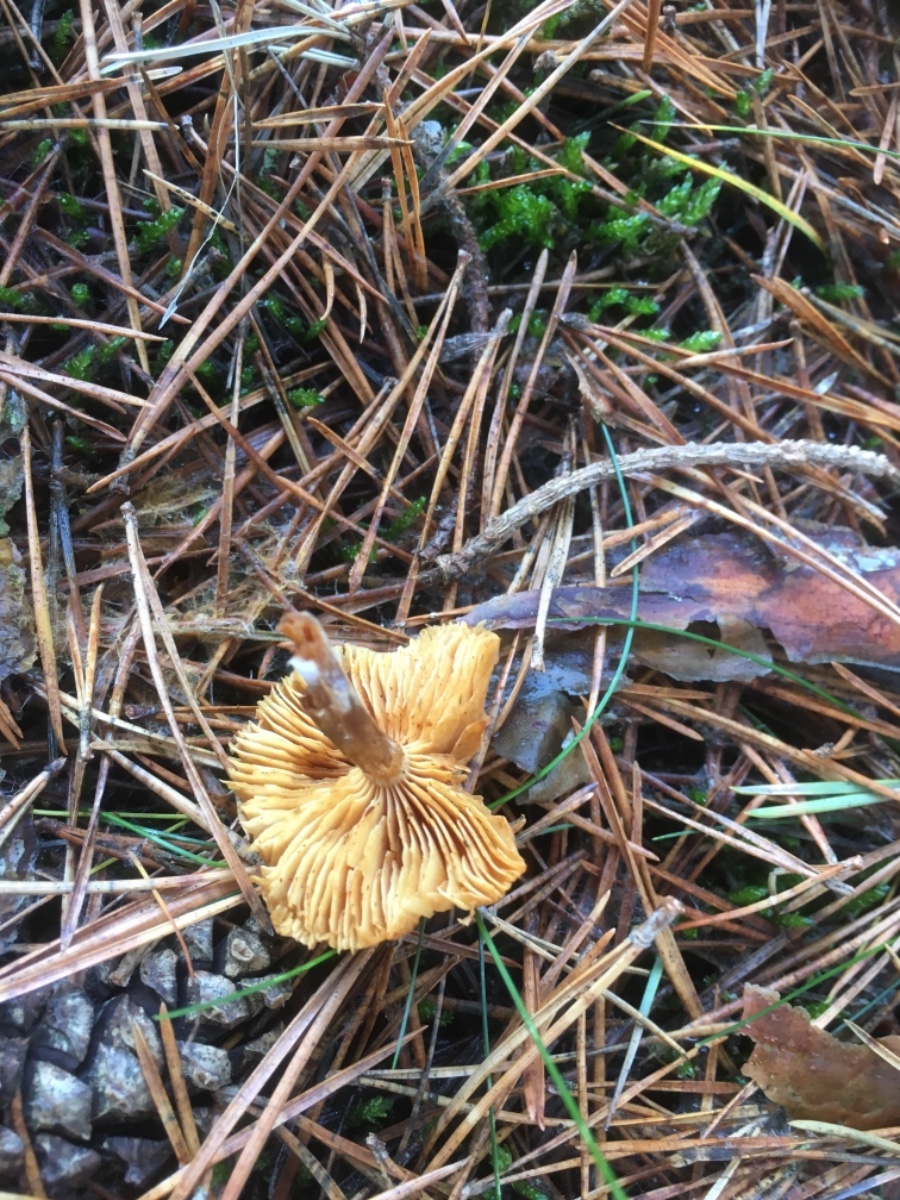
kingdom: Fungi
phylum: Basidiomycota
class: Agaricomycetes
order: Agaricales
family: Cortinariaceae
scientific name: Cortinariaceae
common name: slørhatfamilien
